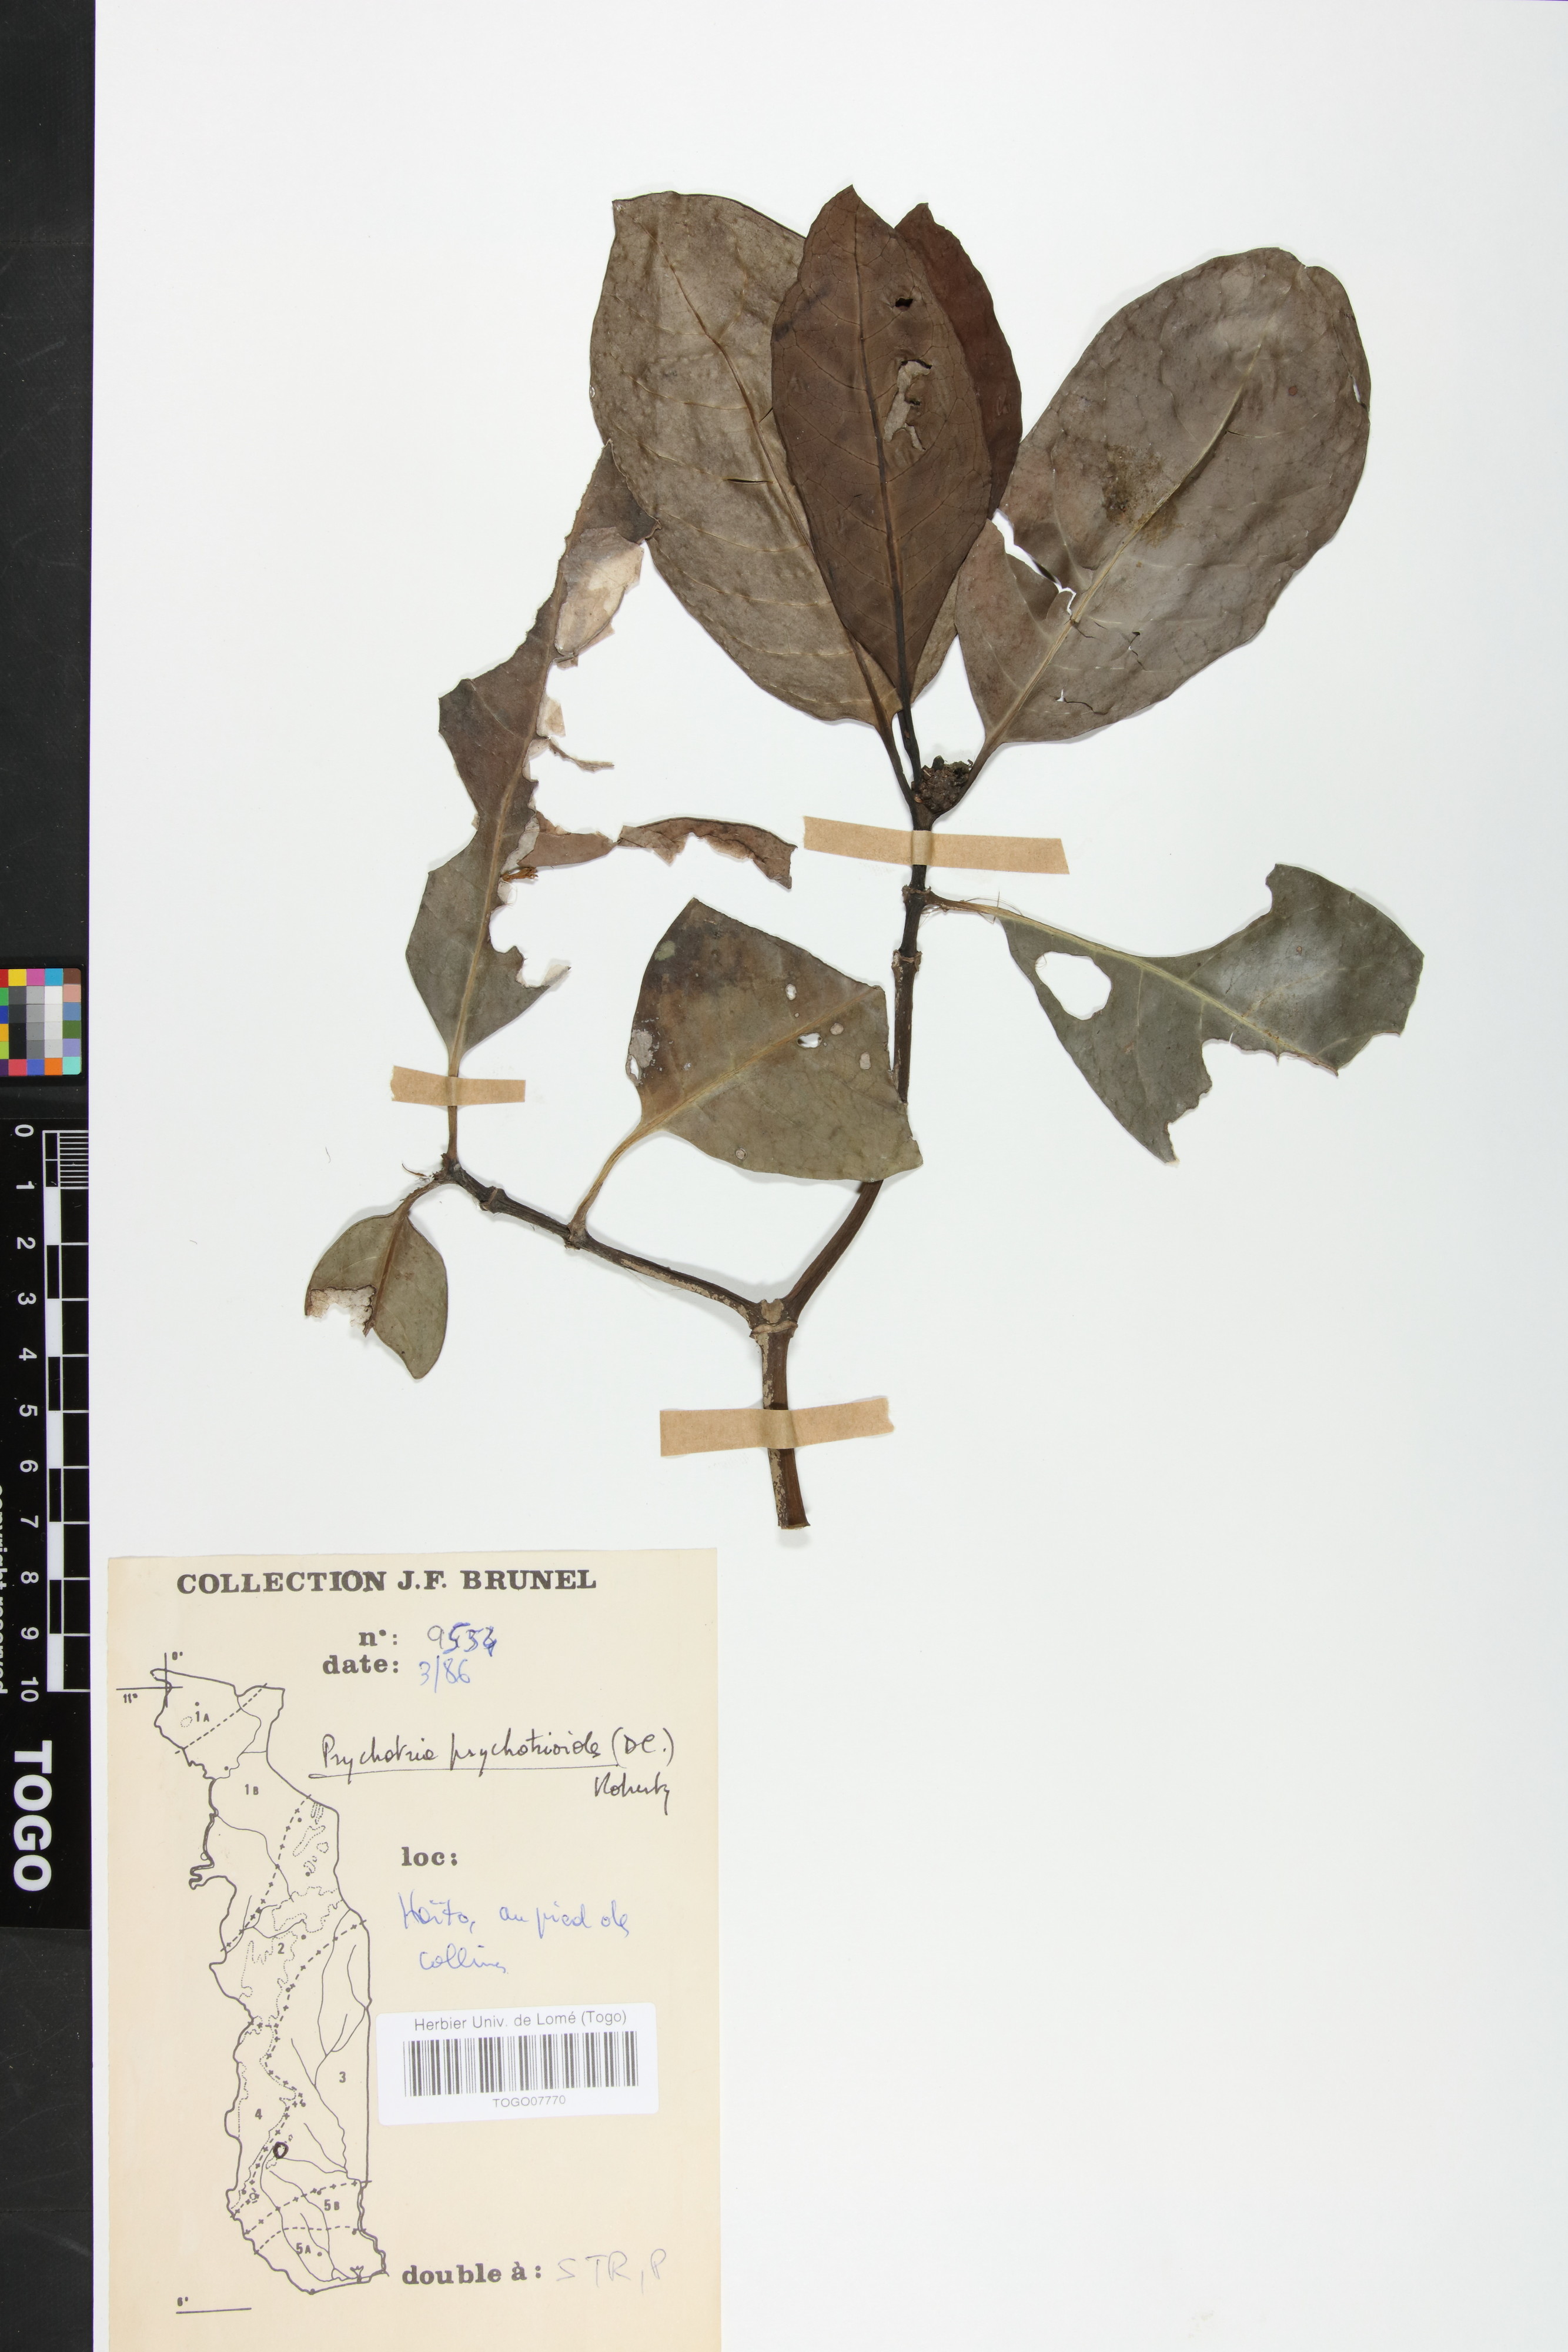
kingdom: Plantae
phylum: Tracheophyta
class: Magnoliopsida
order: Gentianales
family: Rubiaceae
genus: Psychotria
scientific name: Psychotria psychotrioides
